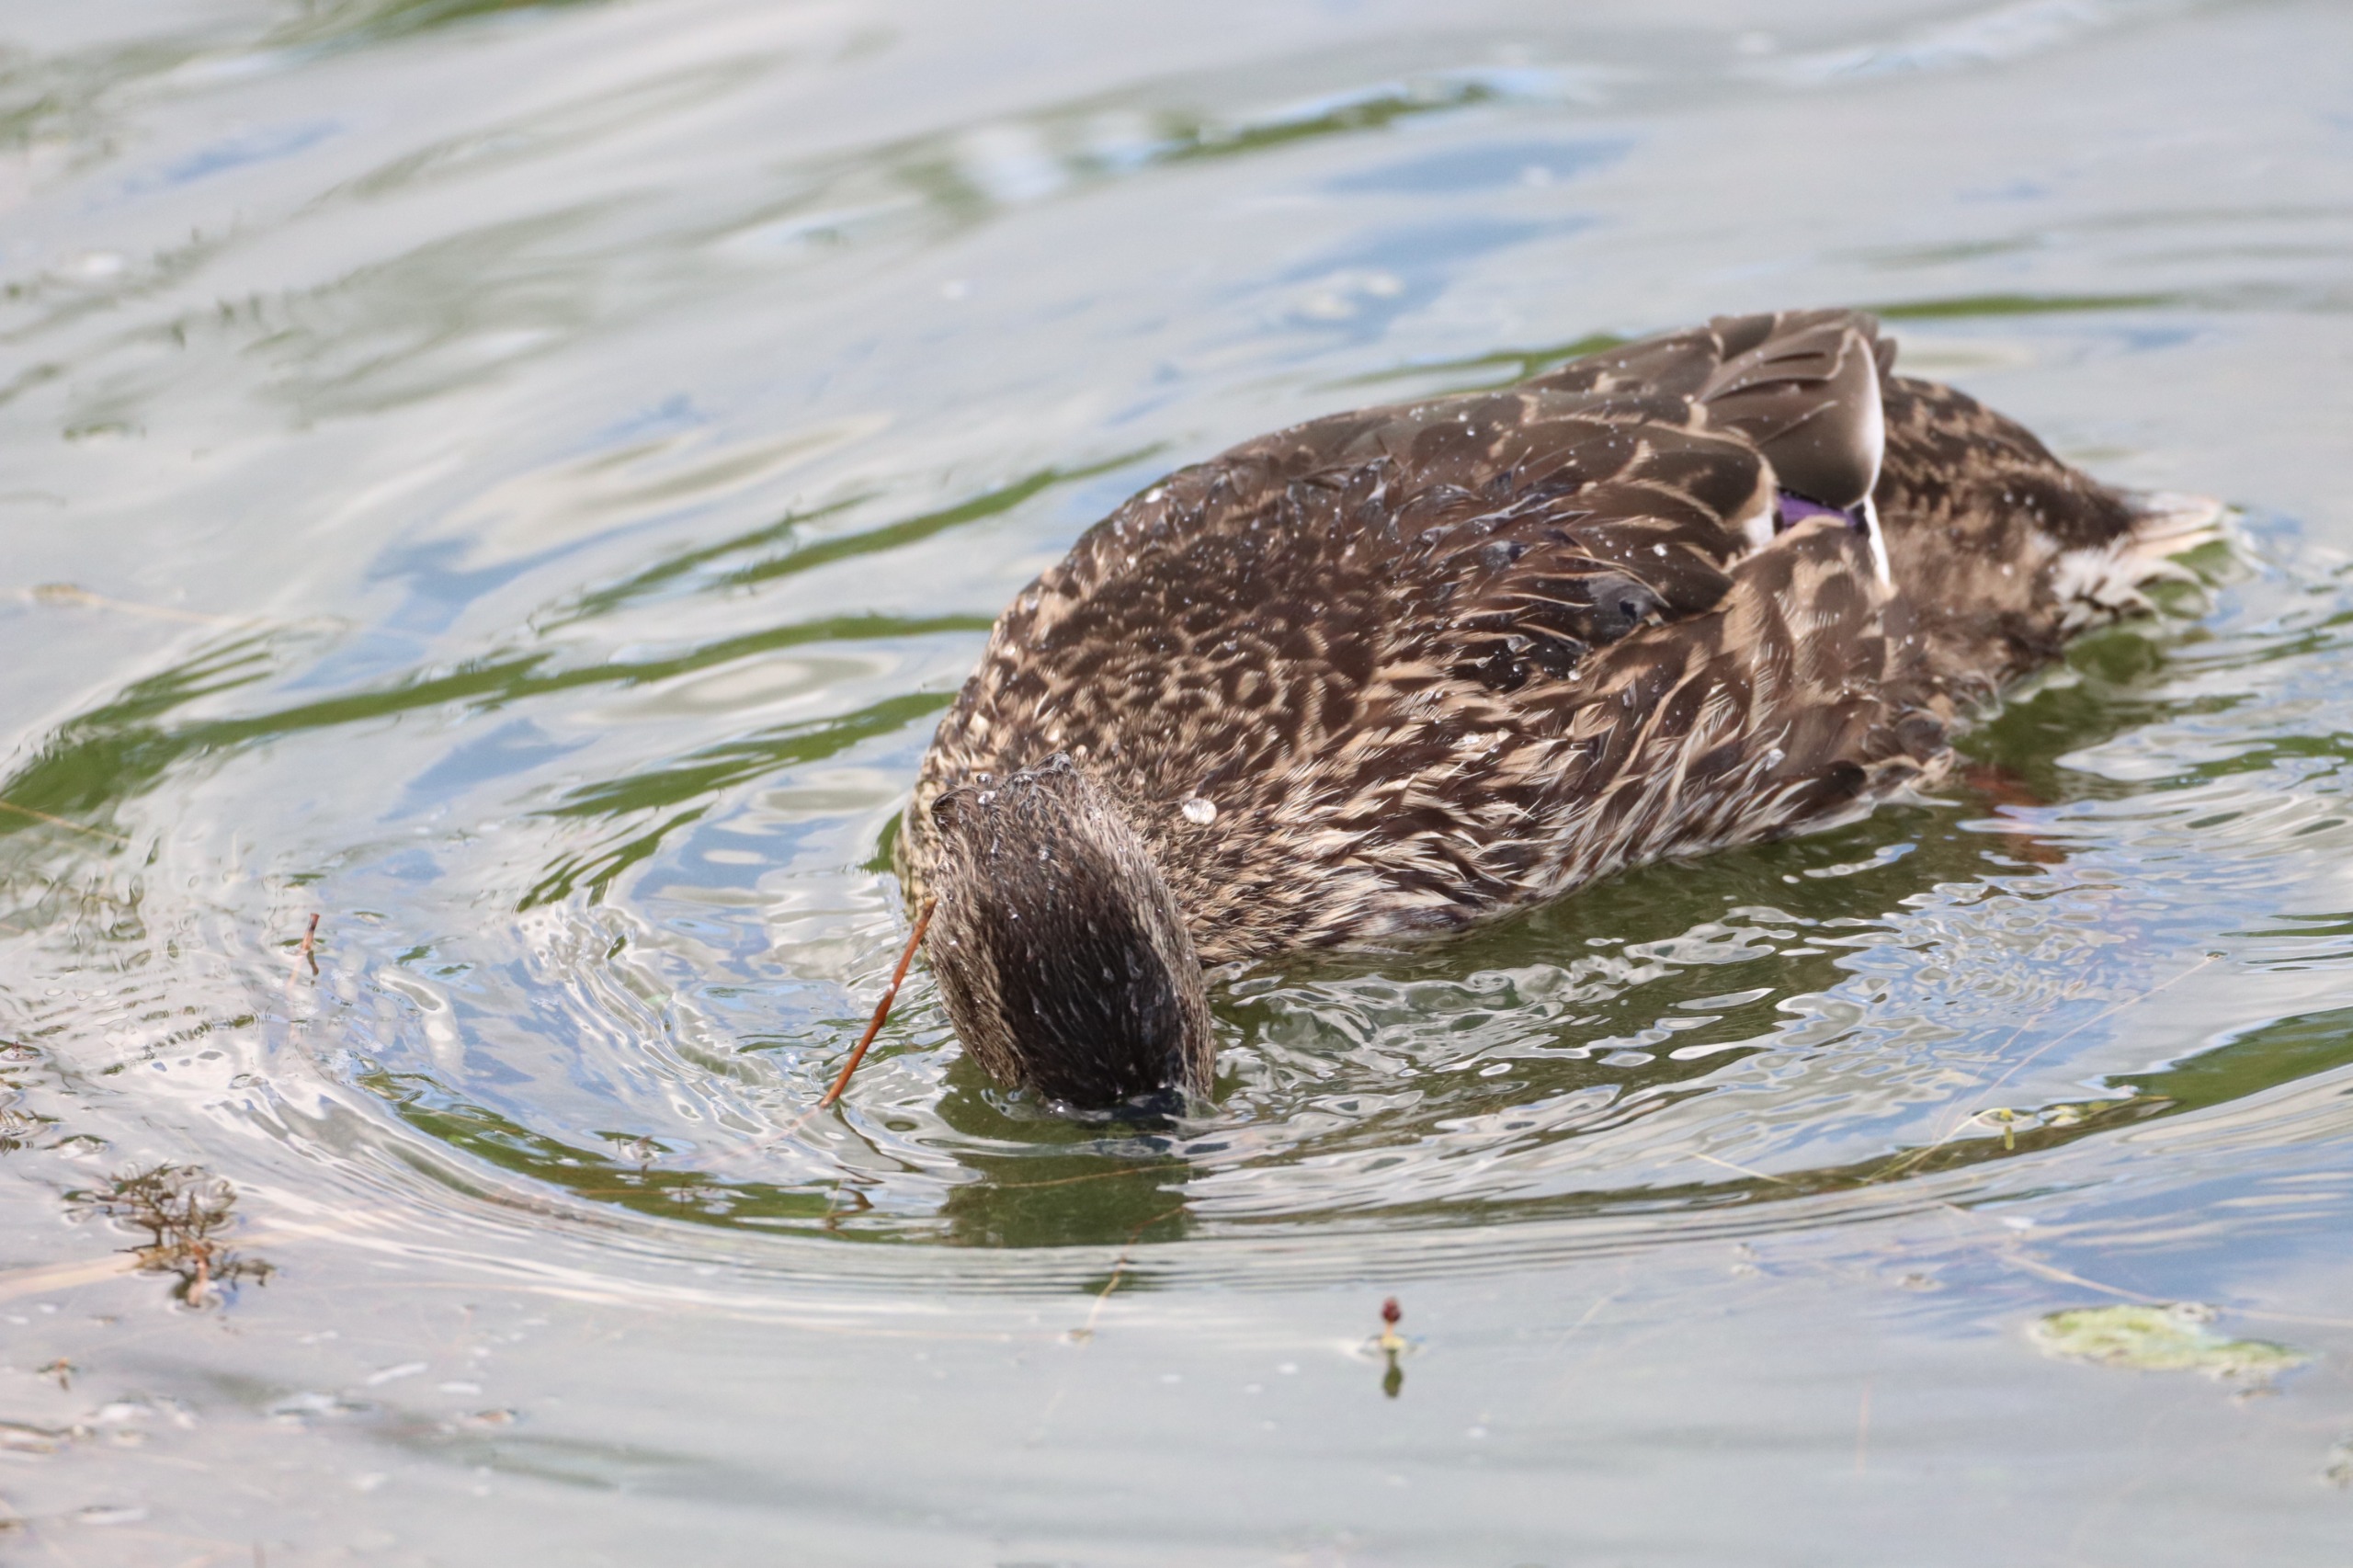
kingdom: Animalia
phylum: Chordata
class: Aves
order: Anseriformes
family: Anatidae
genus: Anas
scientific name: Anas platyrhynchos
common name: Gråand
